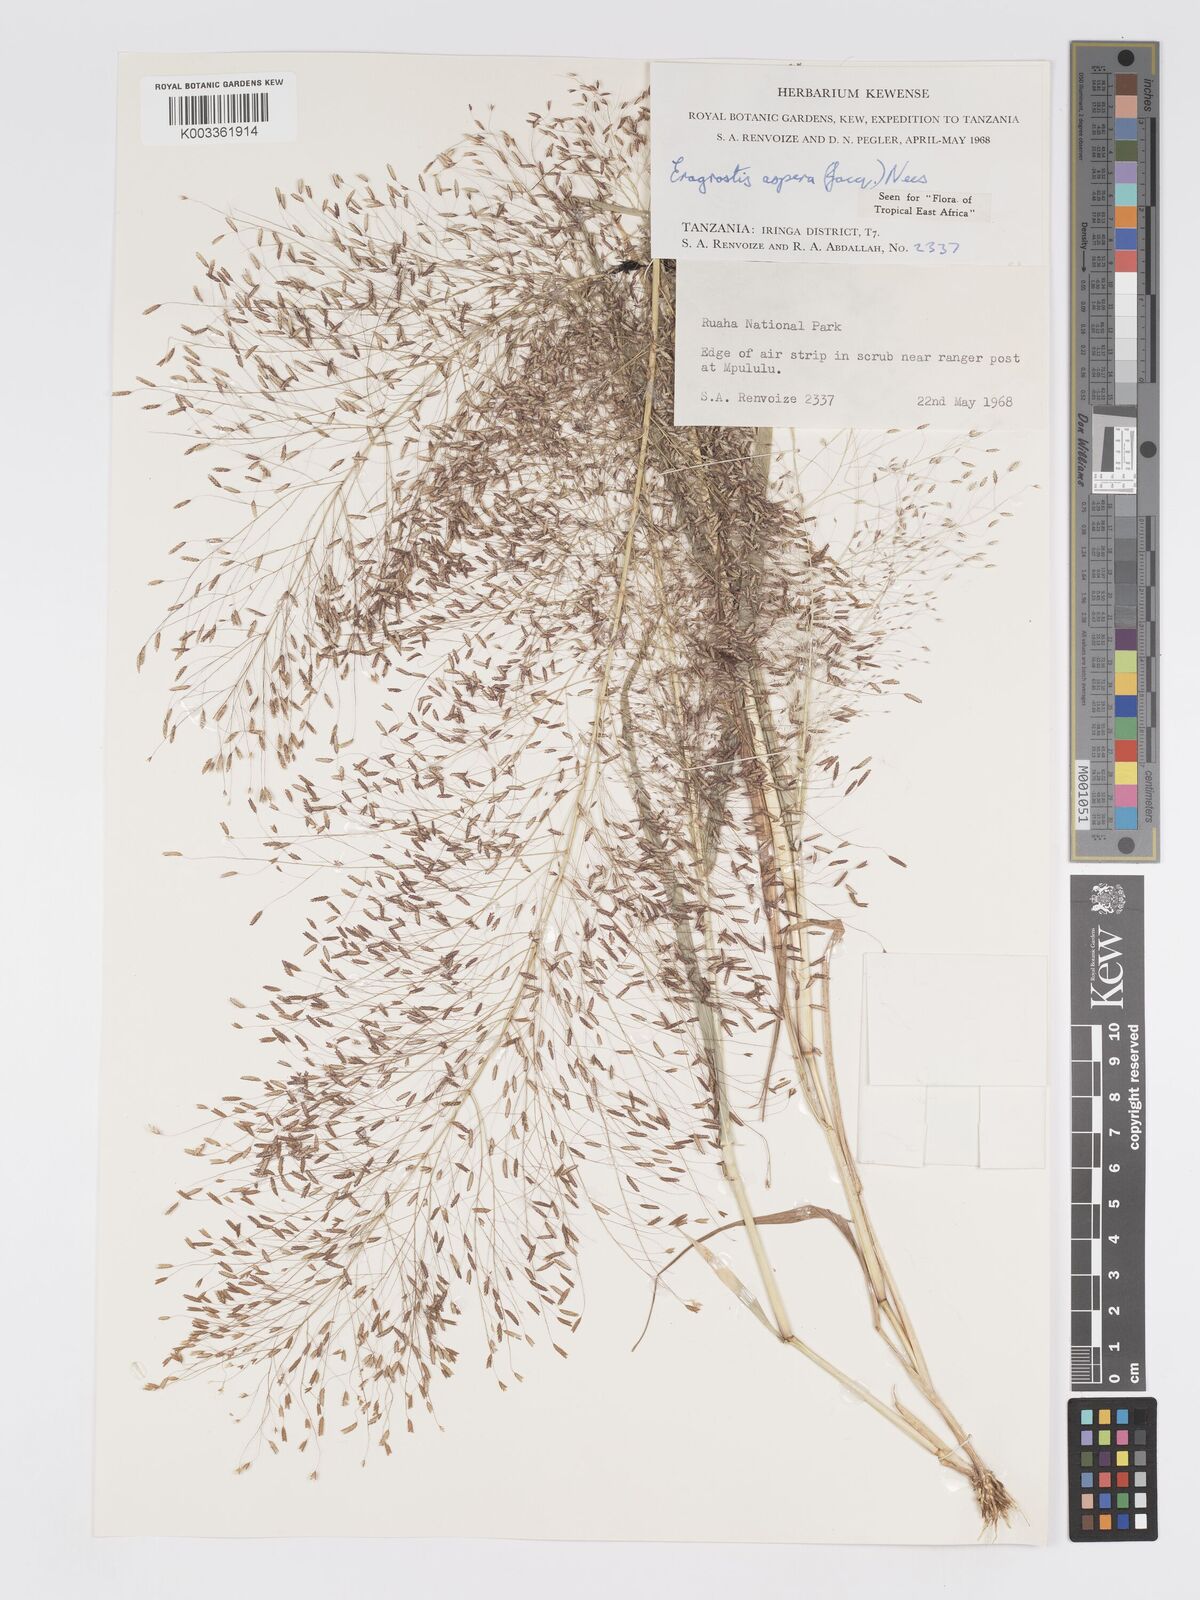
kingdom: Plantae
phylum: Tracheophyta
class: Liliopsida
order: Poales
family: Poaceae
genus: Eragrostis
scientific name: Eragrostis aspera
